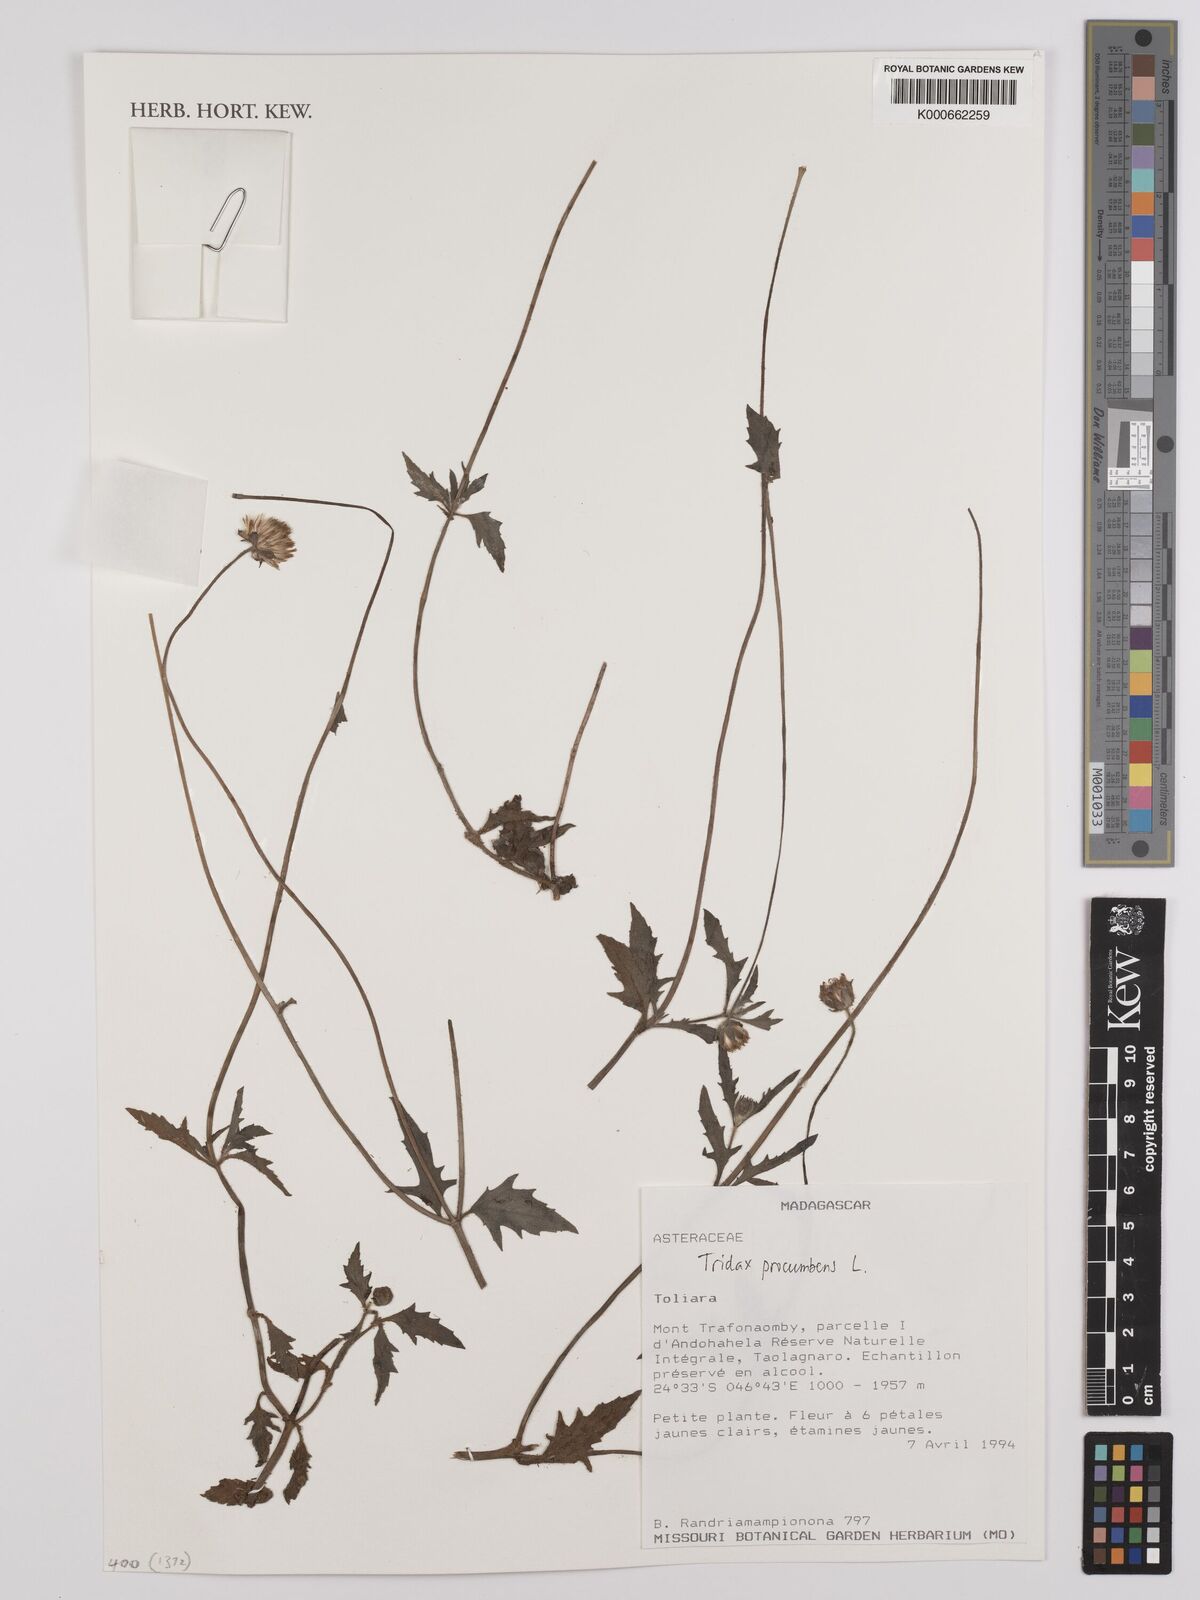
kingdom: Plantae
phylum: Tracheophyta
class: Magnoliopsida
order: Asterales
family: Asteraceae
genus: Tridax
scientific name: Tridax procumbens
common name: Coatbuttons
